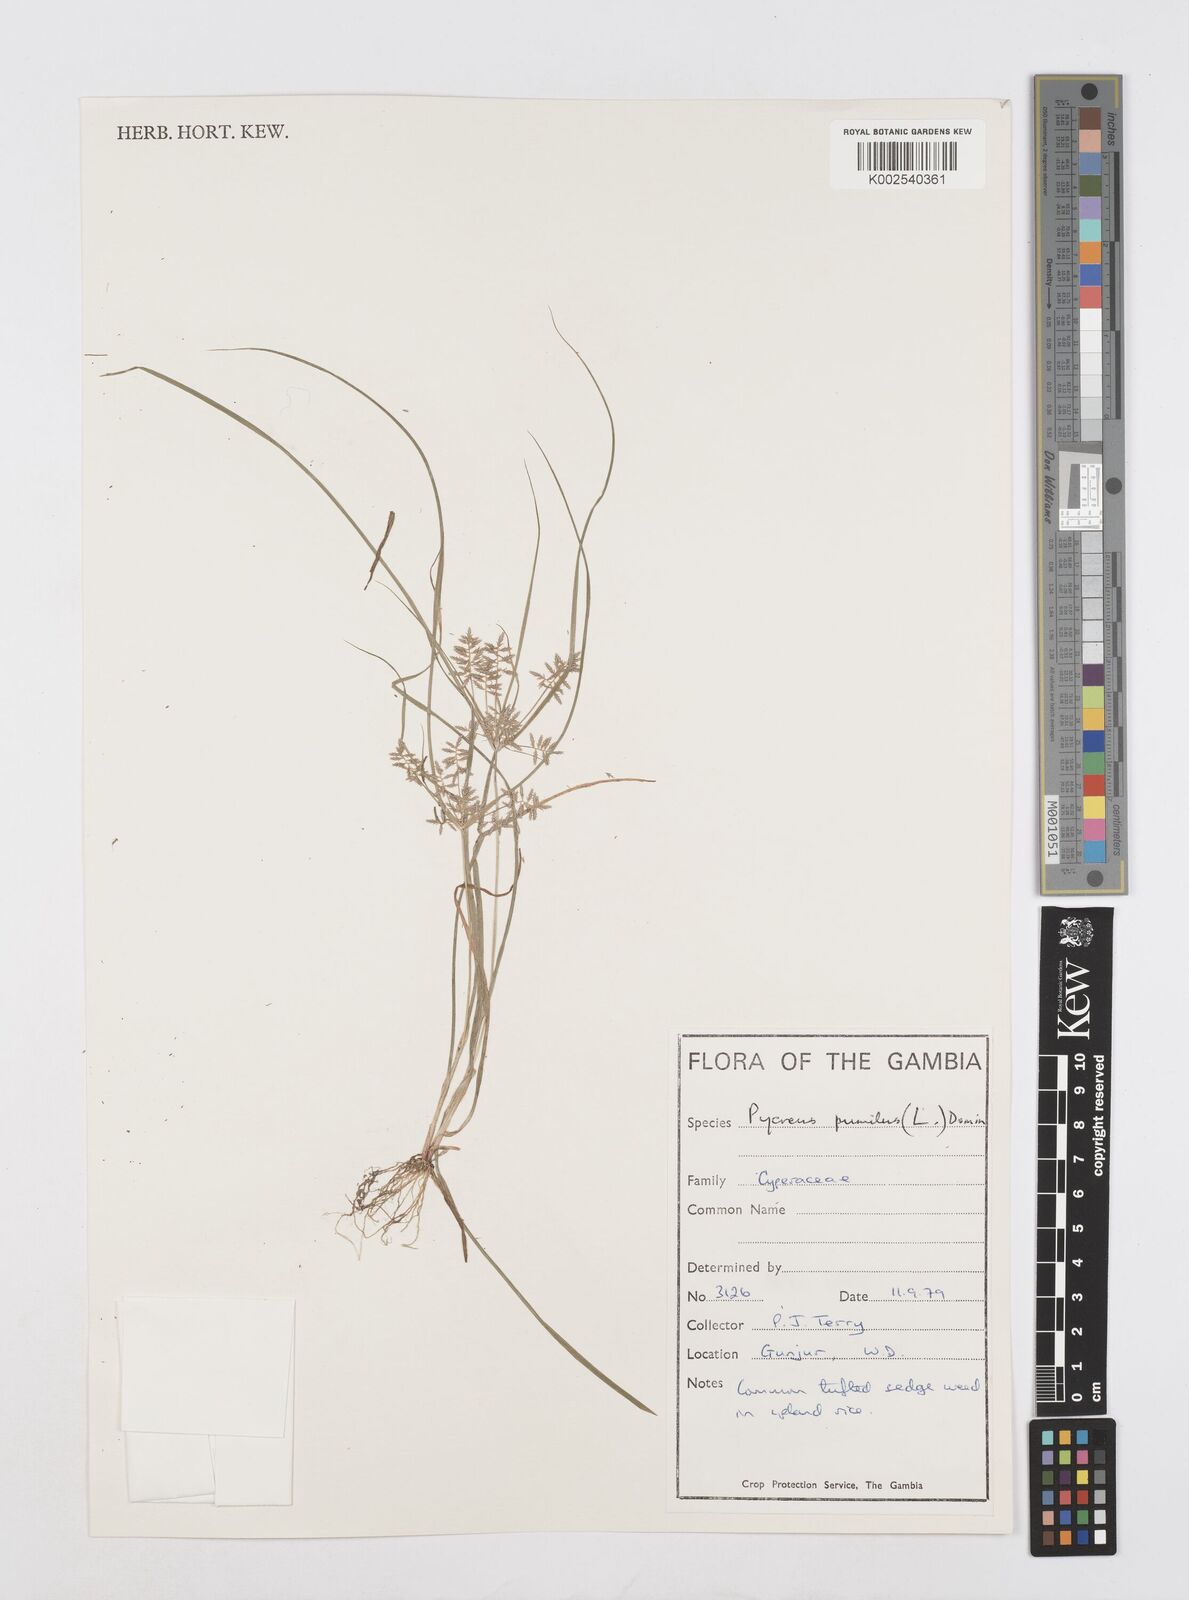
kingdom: Plantae
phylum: Tracheophyta
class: Liliopsida
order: Poales
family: Cyperaceae
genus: Cyperus
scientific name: Cyperus pumilus
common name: Low flatsedge
